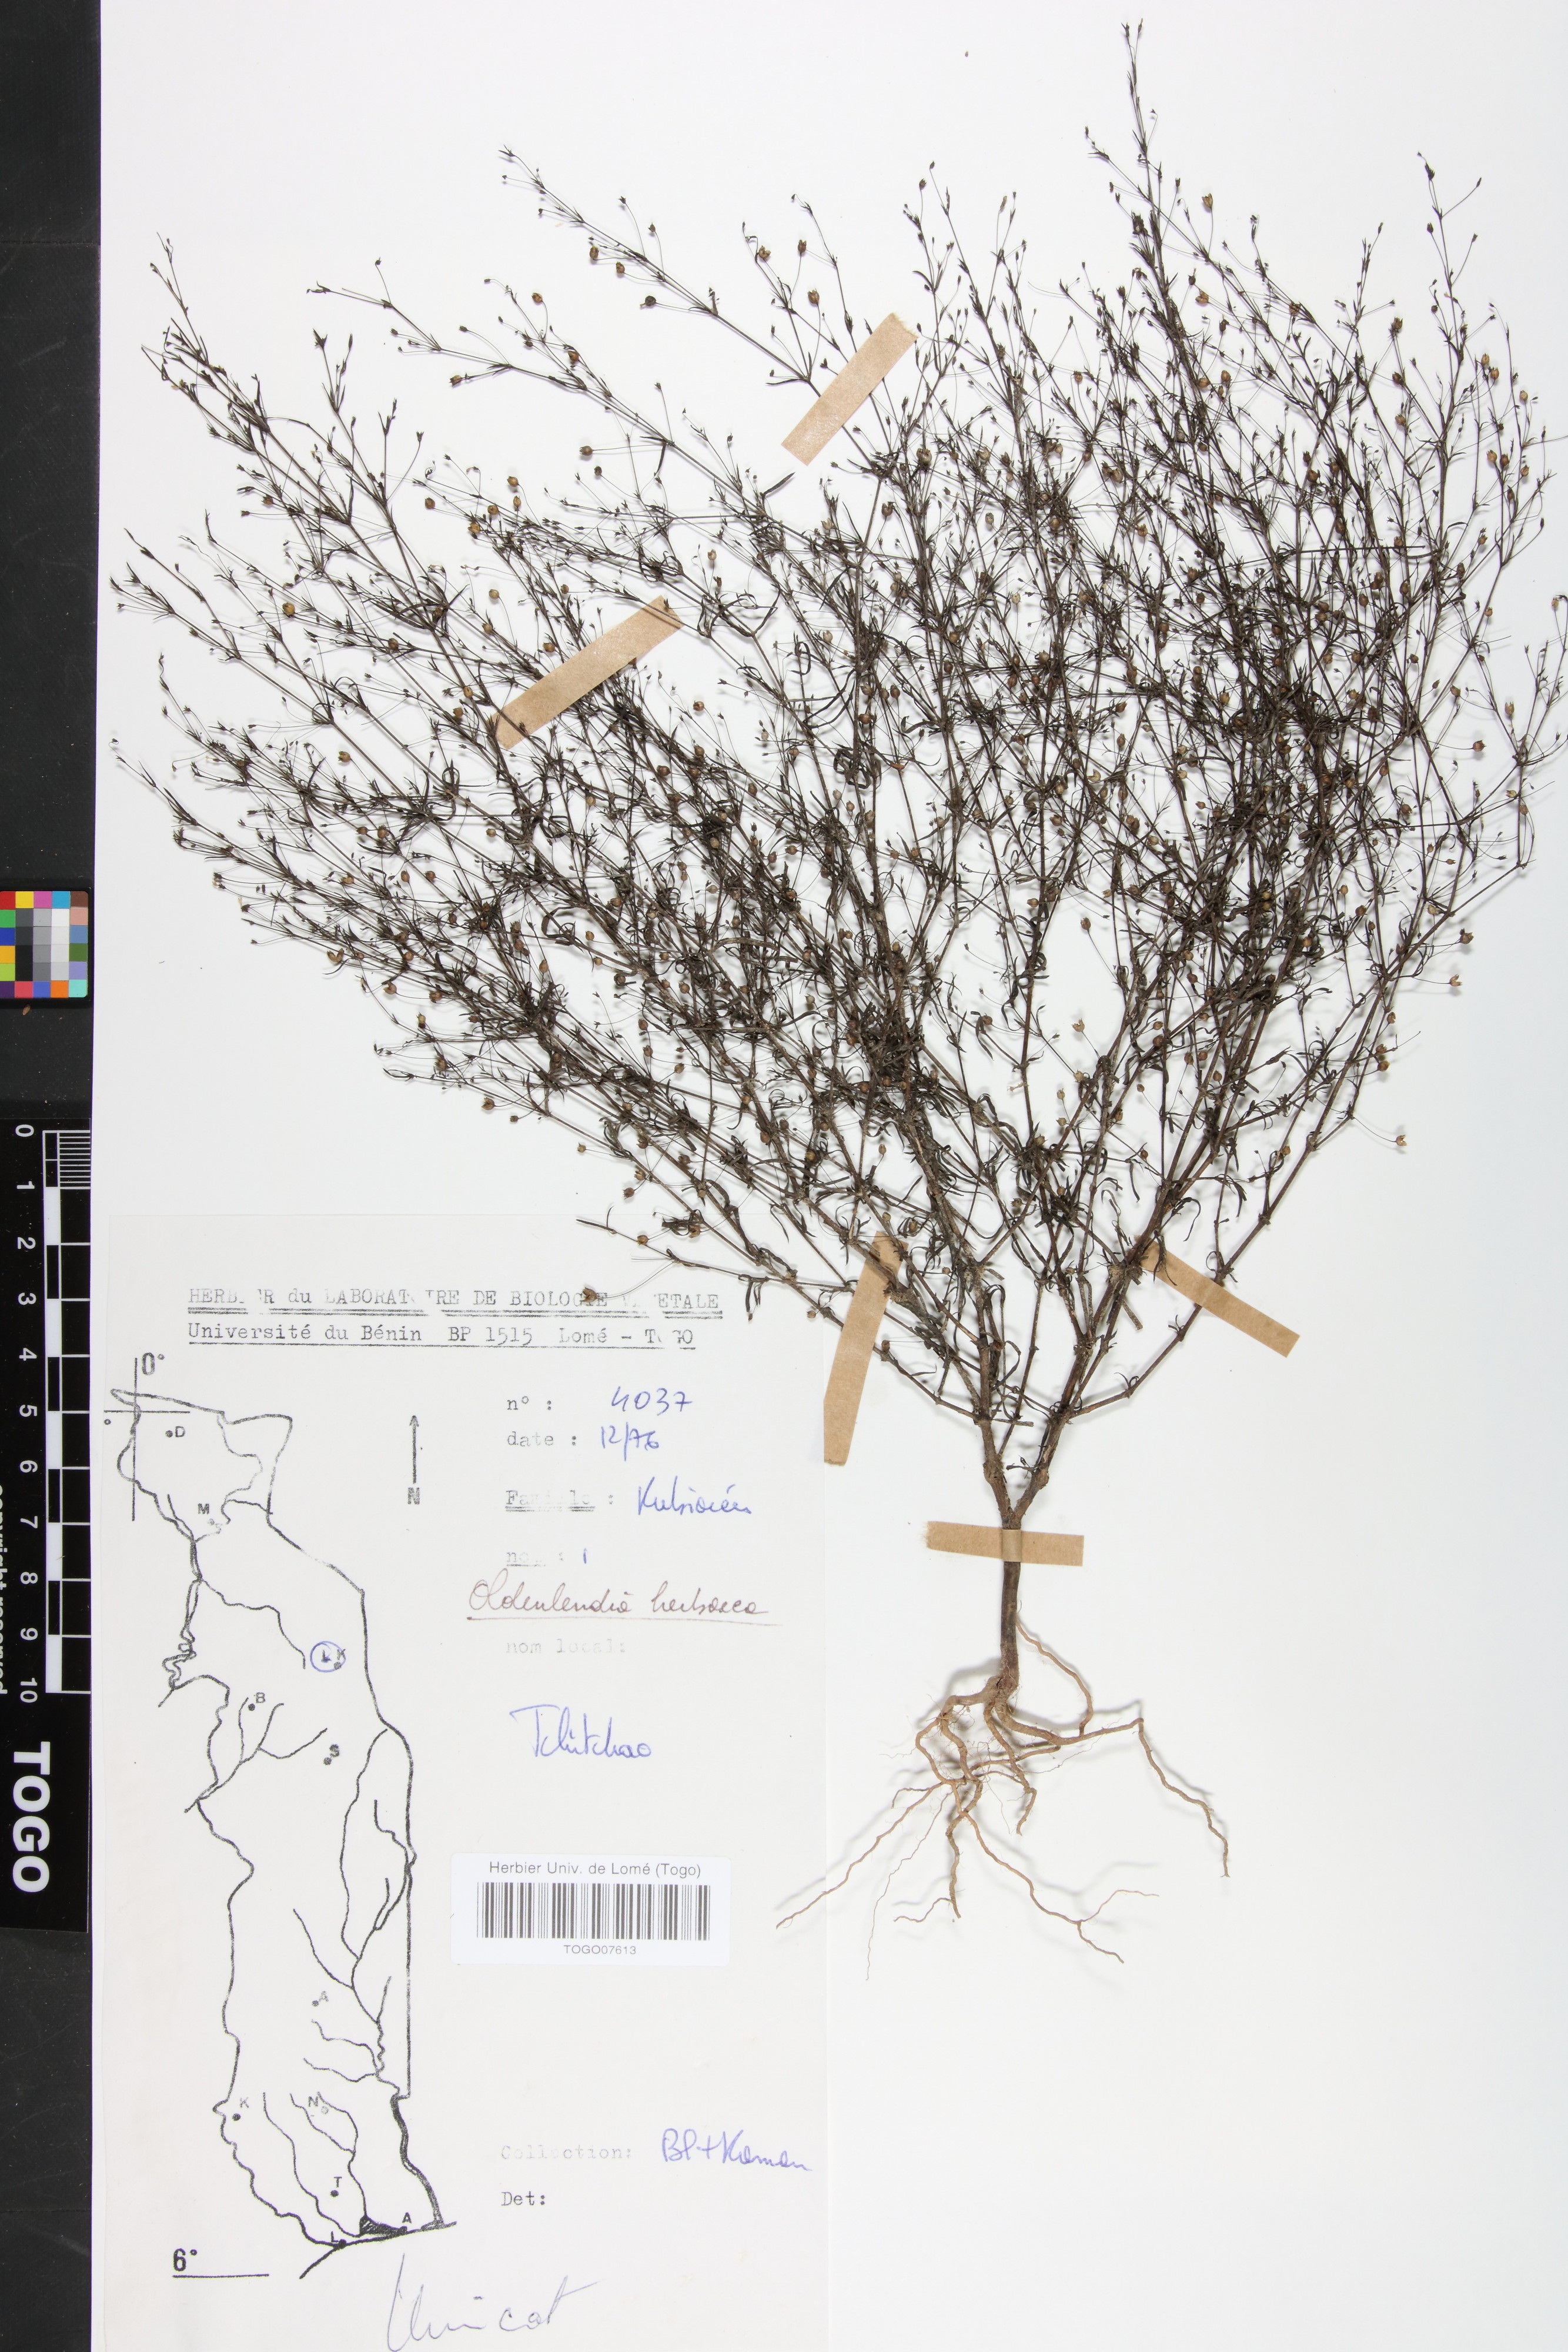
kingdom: Plantae
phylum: Tracheophyta
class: Magnoliopsida
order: Gentianales
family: Rubiaceae
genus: Oldenlandia
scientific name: Oldenlandia herbacea
